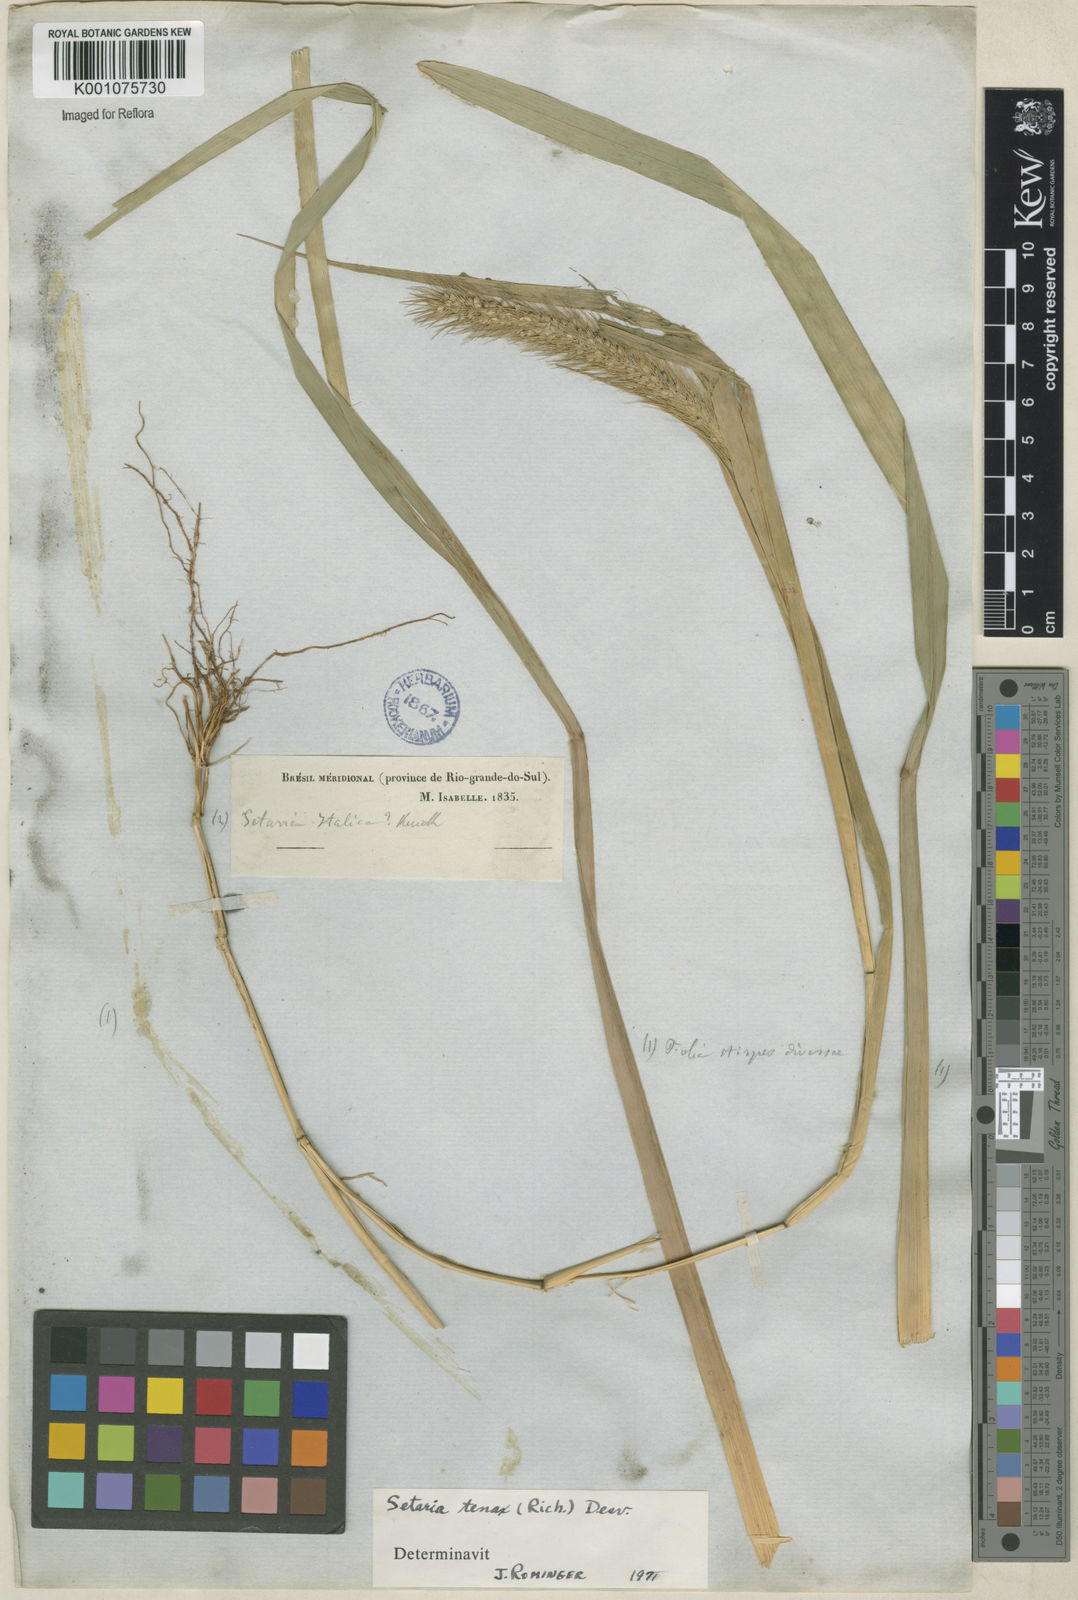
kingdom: Plantae
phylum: Tracheophyta
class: Liliopsida
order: Poales
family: Poaceae
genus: Setaria
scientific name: Setaria tenax
